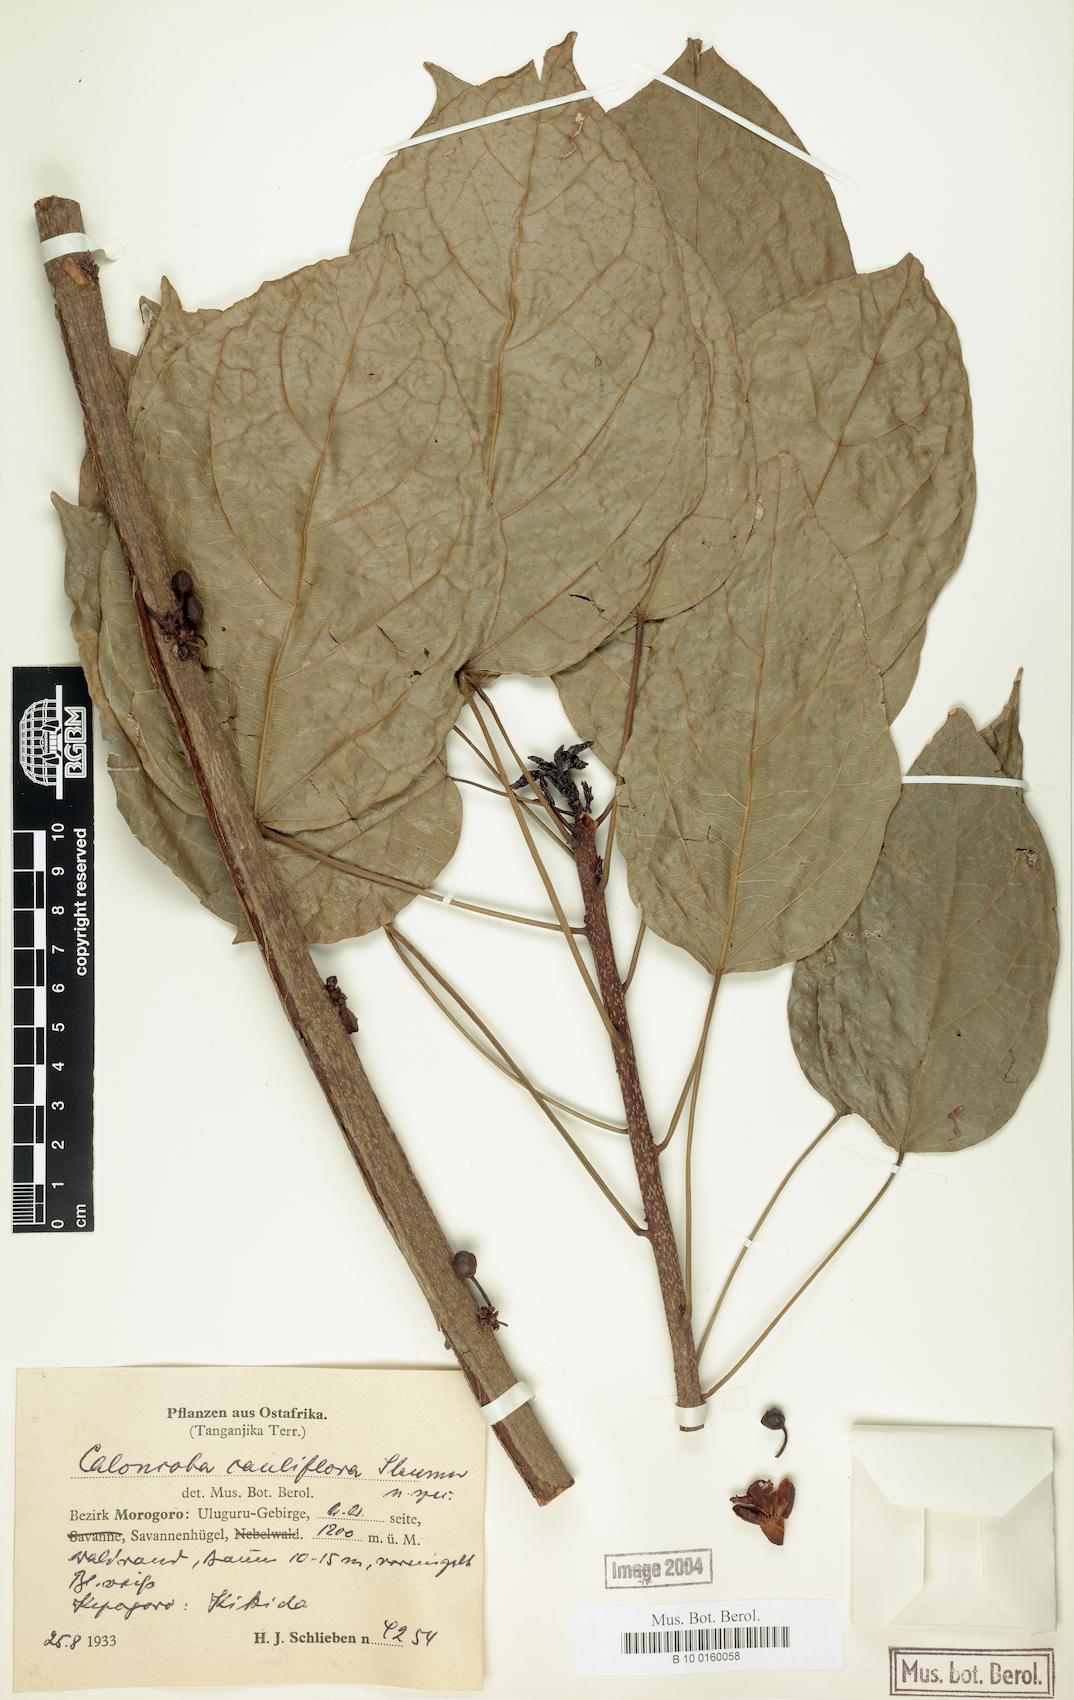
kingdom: Plantae
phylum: Tracheophyta
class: Magnoliopsida
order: Malpighiales
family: Achariaceae
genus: Caloncoba
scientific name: Caloncoba welwitschii
